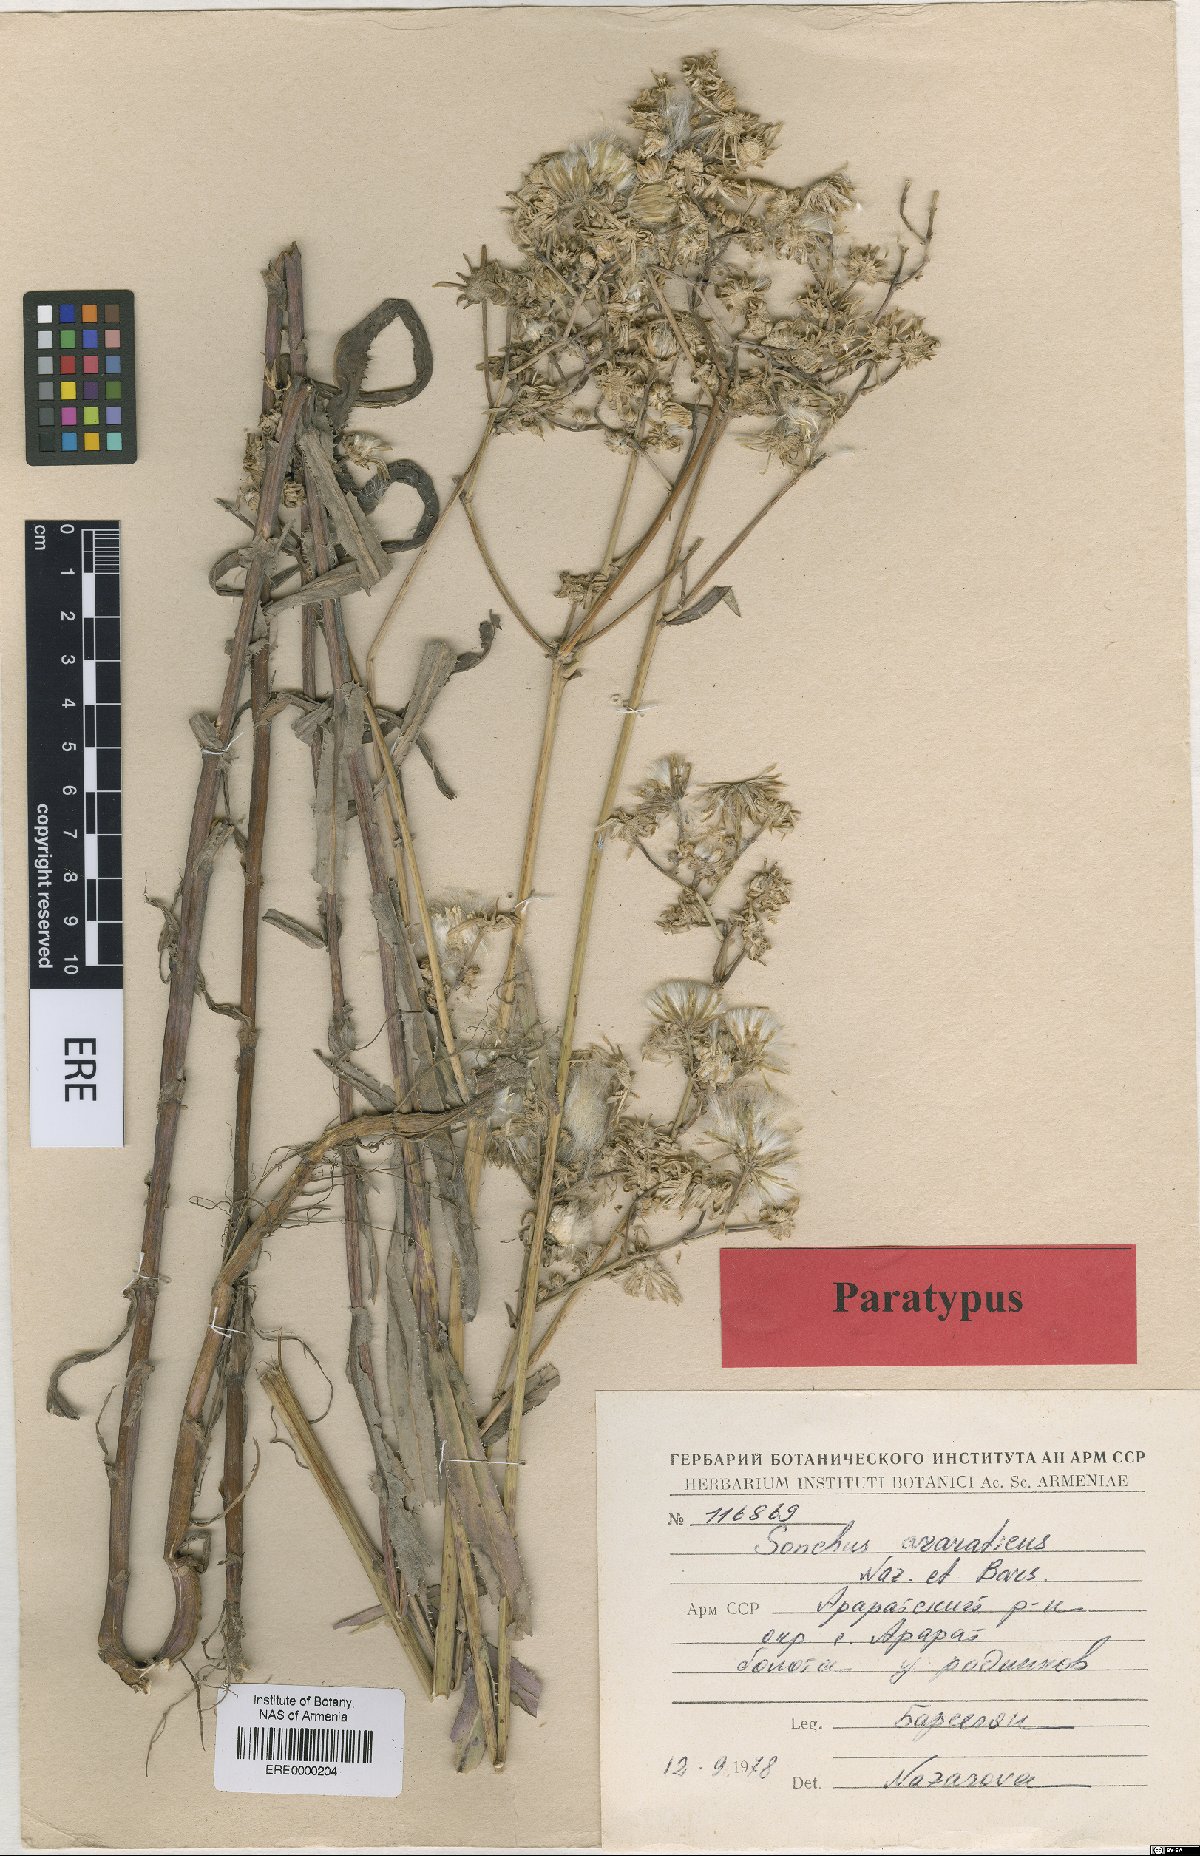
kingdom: Plantae
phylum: Tracheophyta
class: Magnoliopsida
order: Asterales
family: Asteraceae
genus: Sonchus
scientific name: Sonchus araraticus
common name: Araratian sow-thistle
